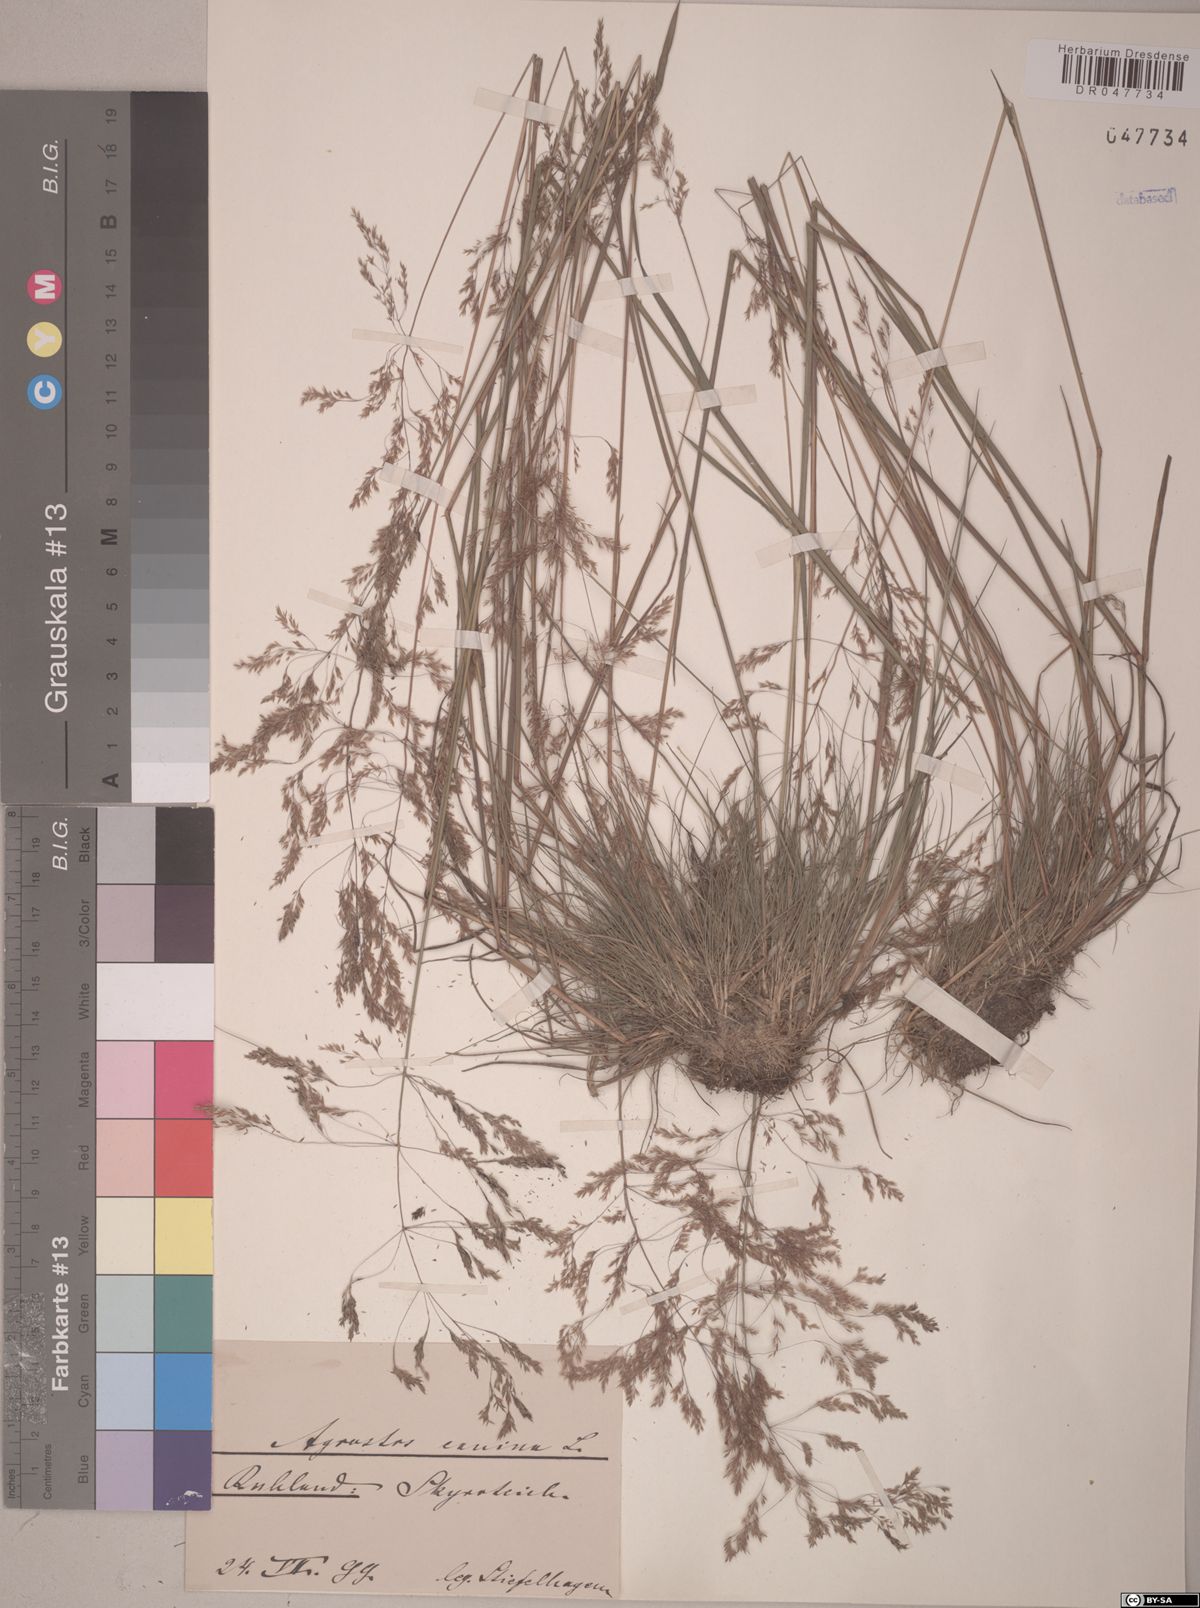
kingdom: Plantae
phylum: Tracheophyta
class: Liliopsida
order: Poales
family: Poaceae
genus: Agrostis
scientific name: Agrostis canina
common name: Velvet bent
